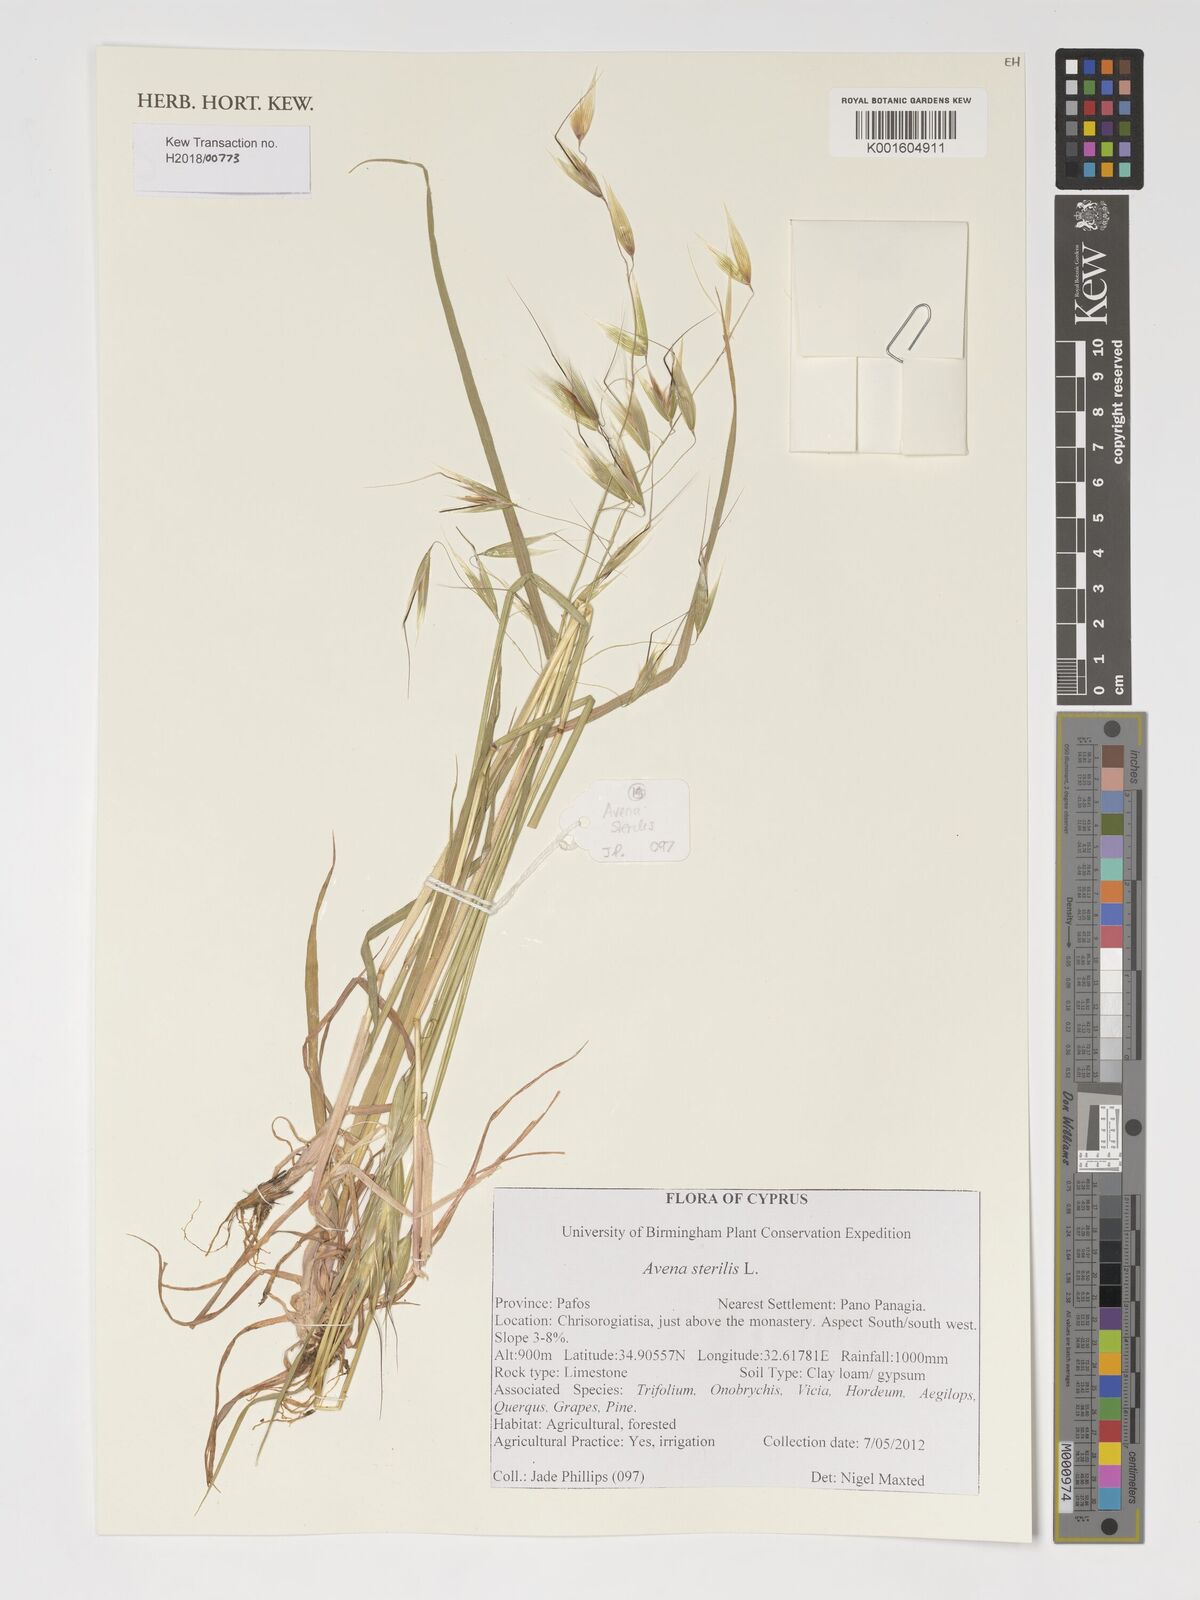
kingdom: Plantae
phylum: Tracheophyta
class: Liliopsida
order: Poales
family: Poaceae
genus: Avena
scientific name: Avena sterilis
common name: Animated oat
